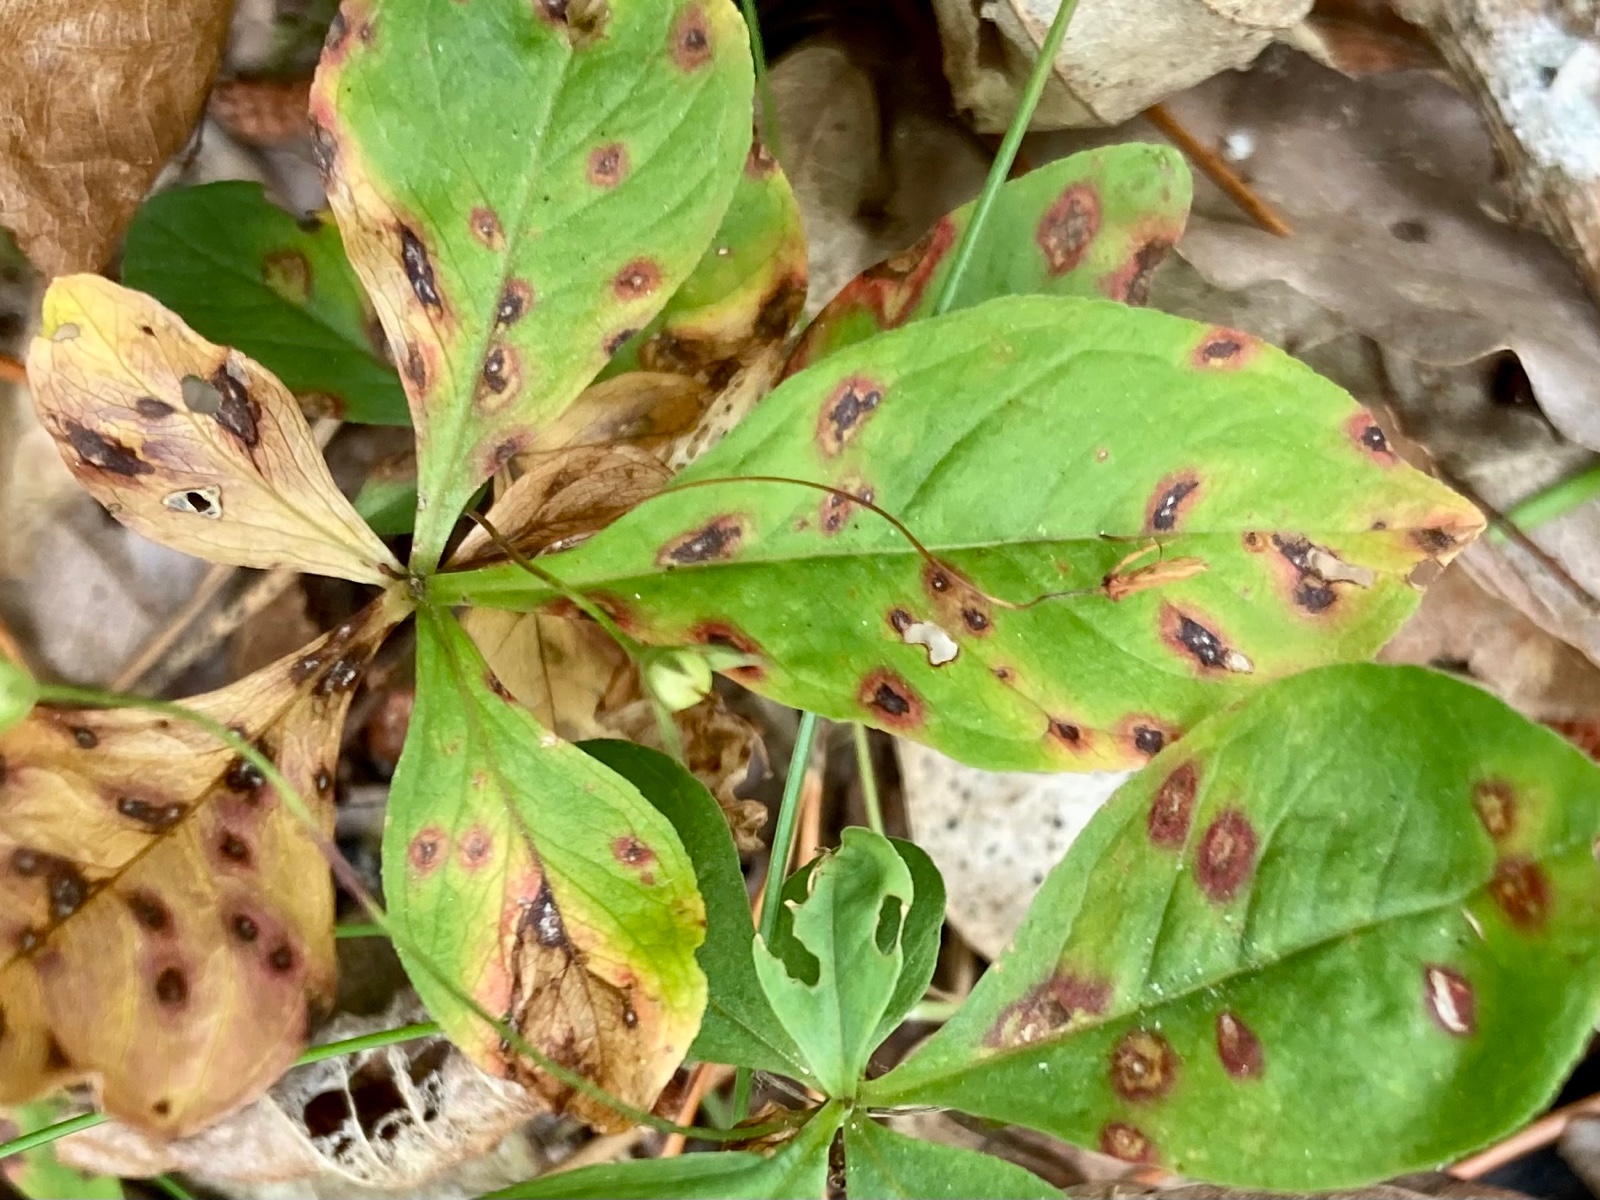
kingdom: Fungi
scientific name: Fungi
